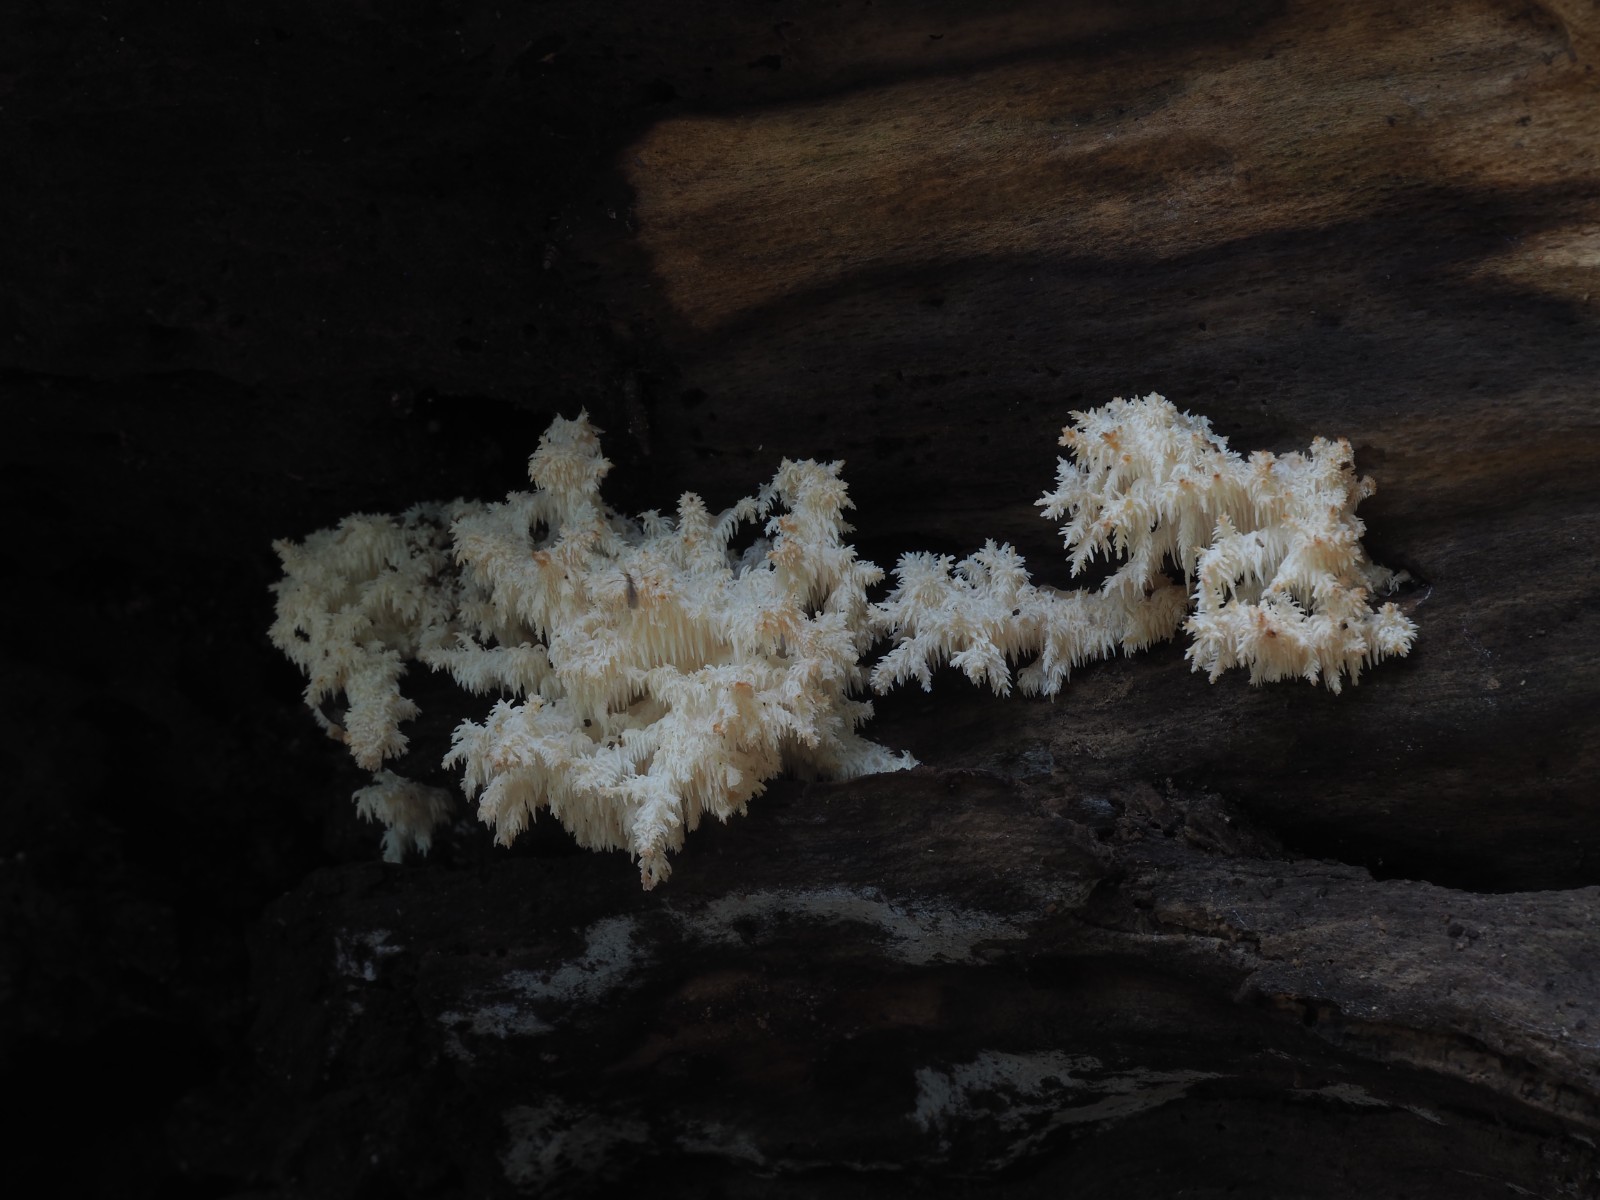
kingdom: Fungi
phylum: Basidiomycota
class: Agaricomycetes
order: Russulales
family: Hericiaceae
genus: Hericium
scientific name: Hericium coralloides
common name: koralpigsvamp
